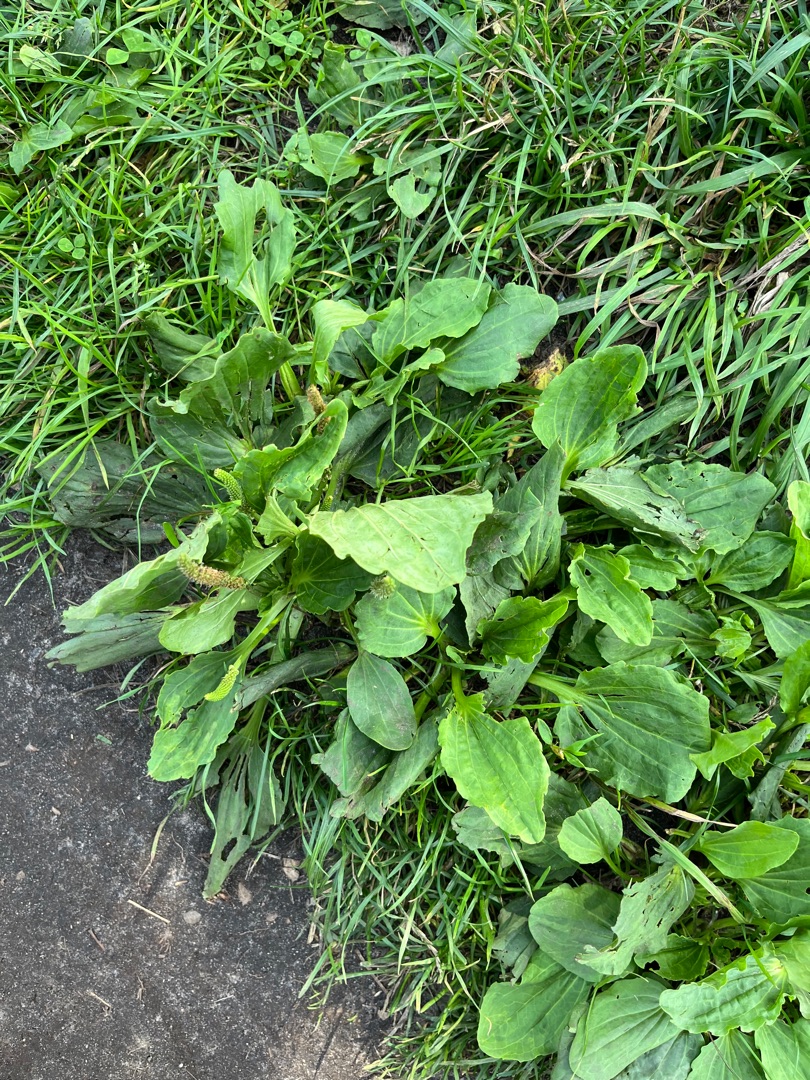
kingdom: Plantae
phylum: Tracheophyta
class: Magnoliopsida
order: Lamiales
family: Plantaginaceae
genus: Plantago
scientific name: Plantago major
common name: Glat vejbred
